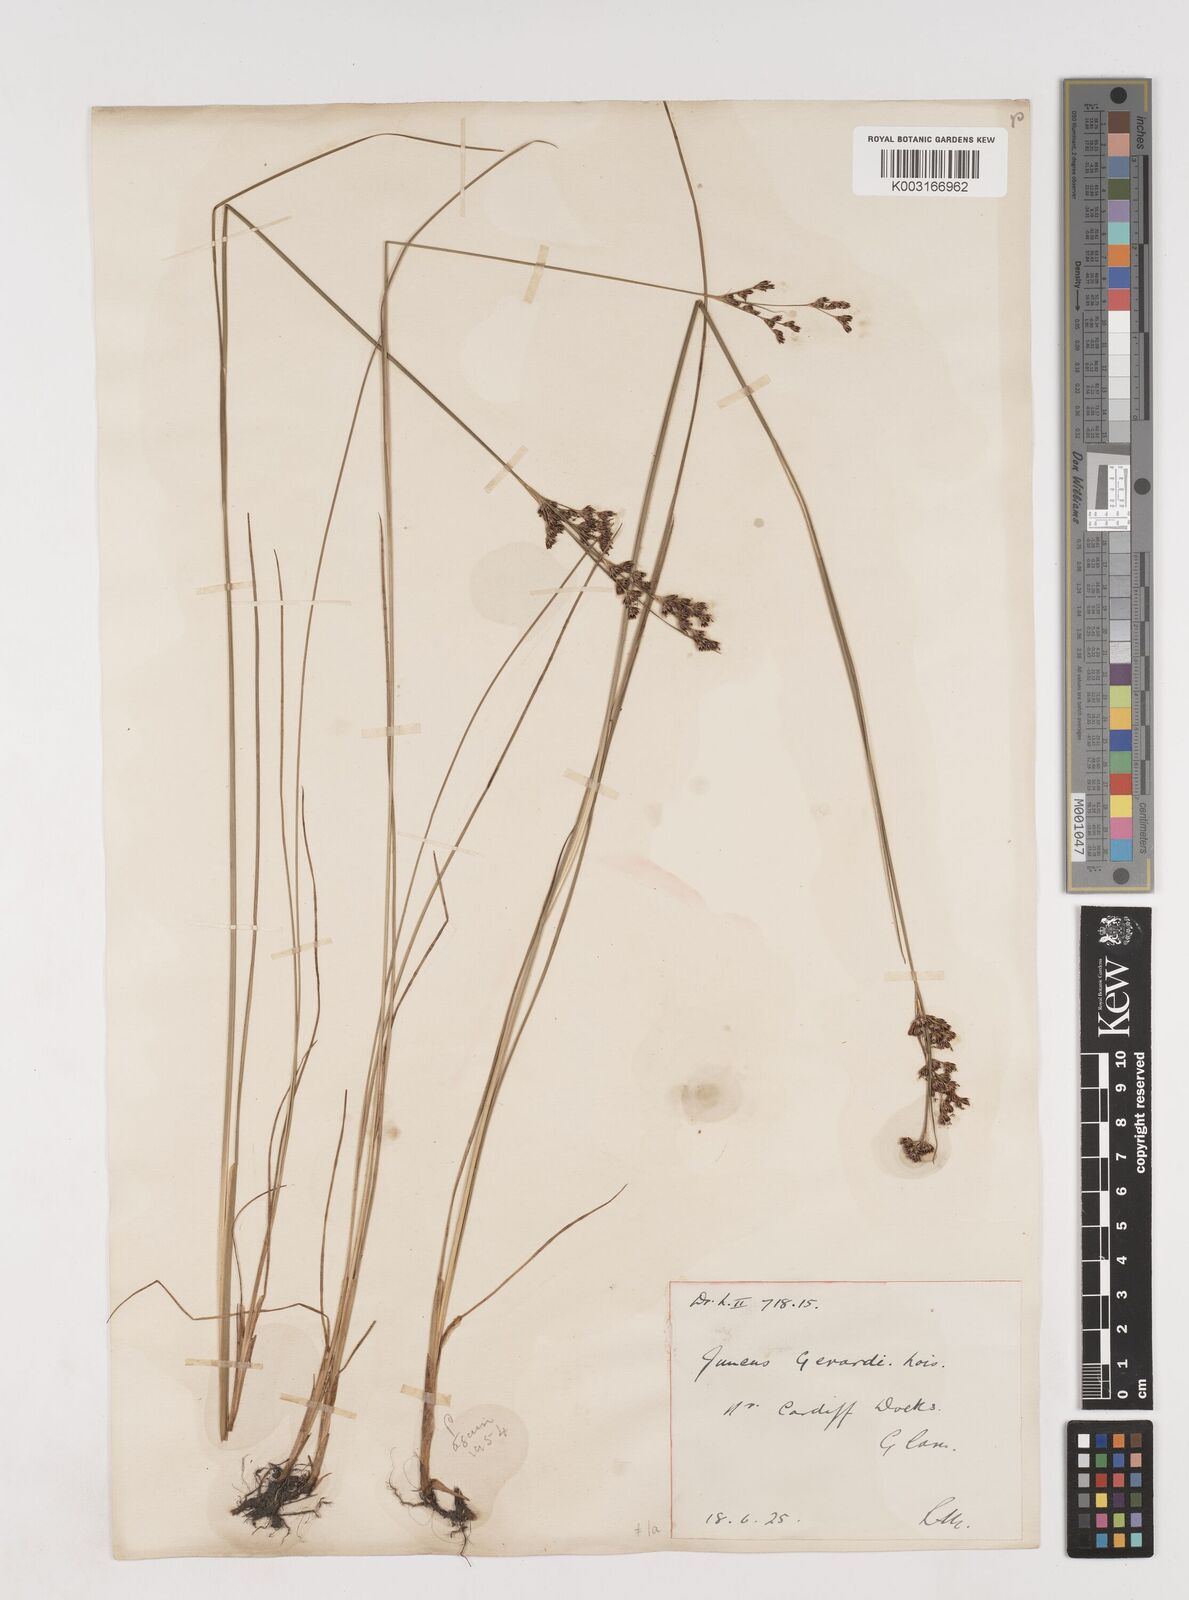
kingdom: Plantae
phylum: Tracheophyta
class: Liliopsida
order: Poales
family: Juncaceae
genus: Juncus
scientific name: Juncus gerardi
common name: Saltmarsh rush
